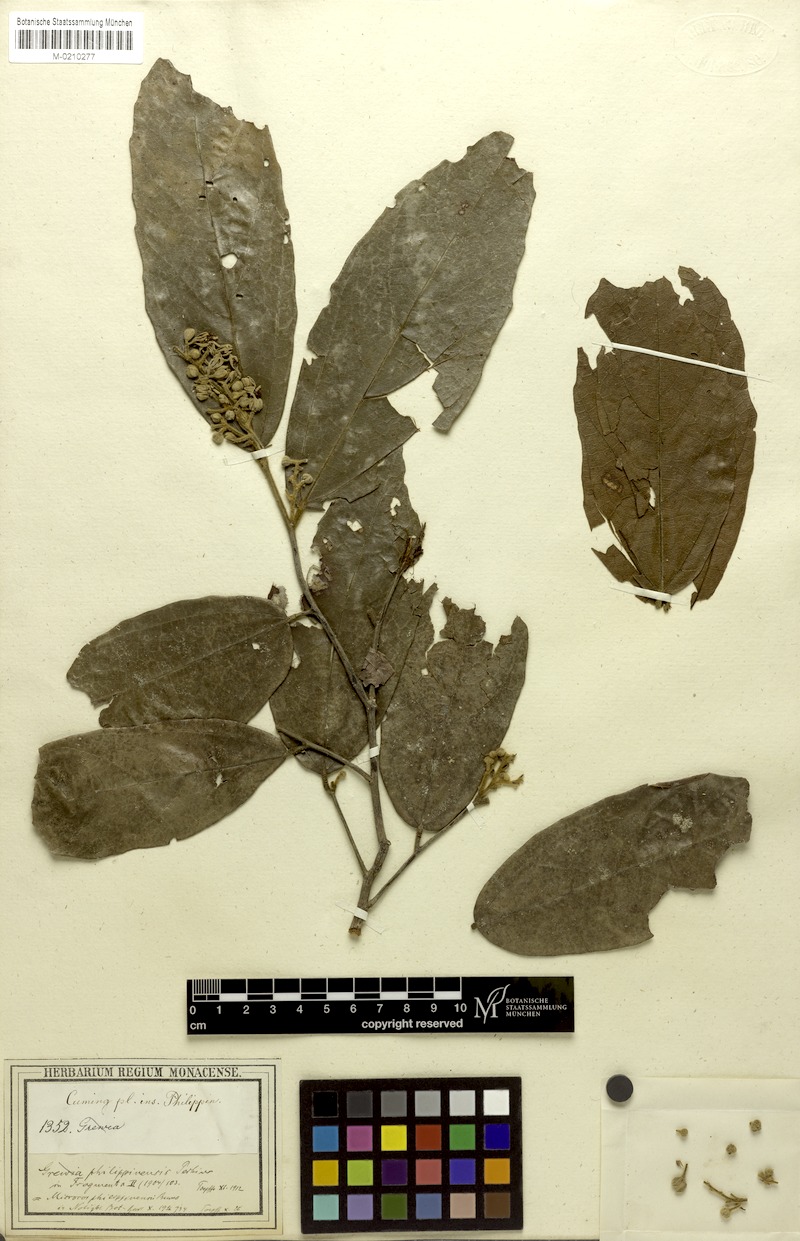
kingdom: Plantae
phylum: Tracheophyta
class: Magnoliopsida
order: Malvales
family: Malvaceae
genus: Microcos
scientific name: Microcos philippinensis
